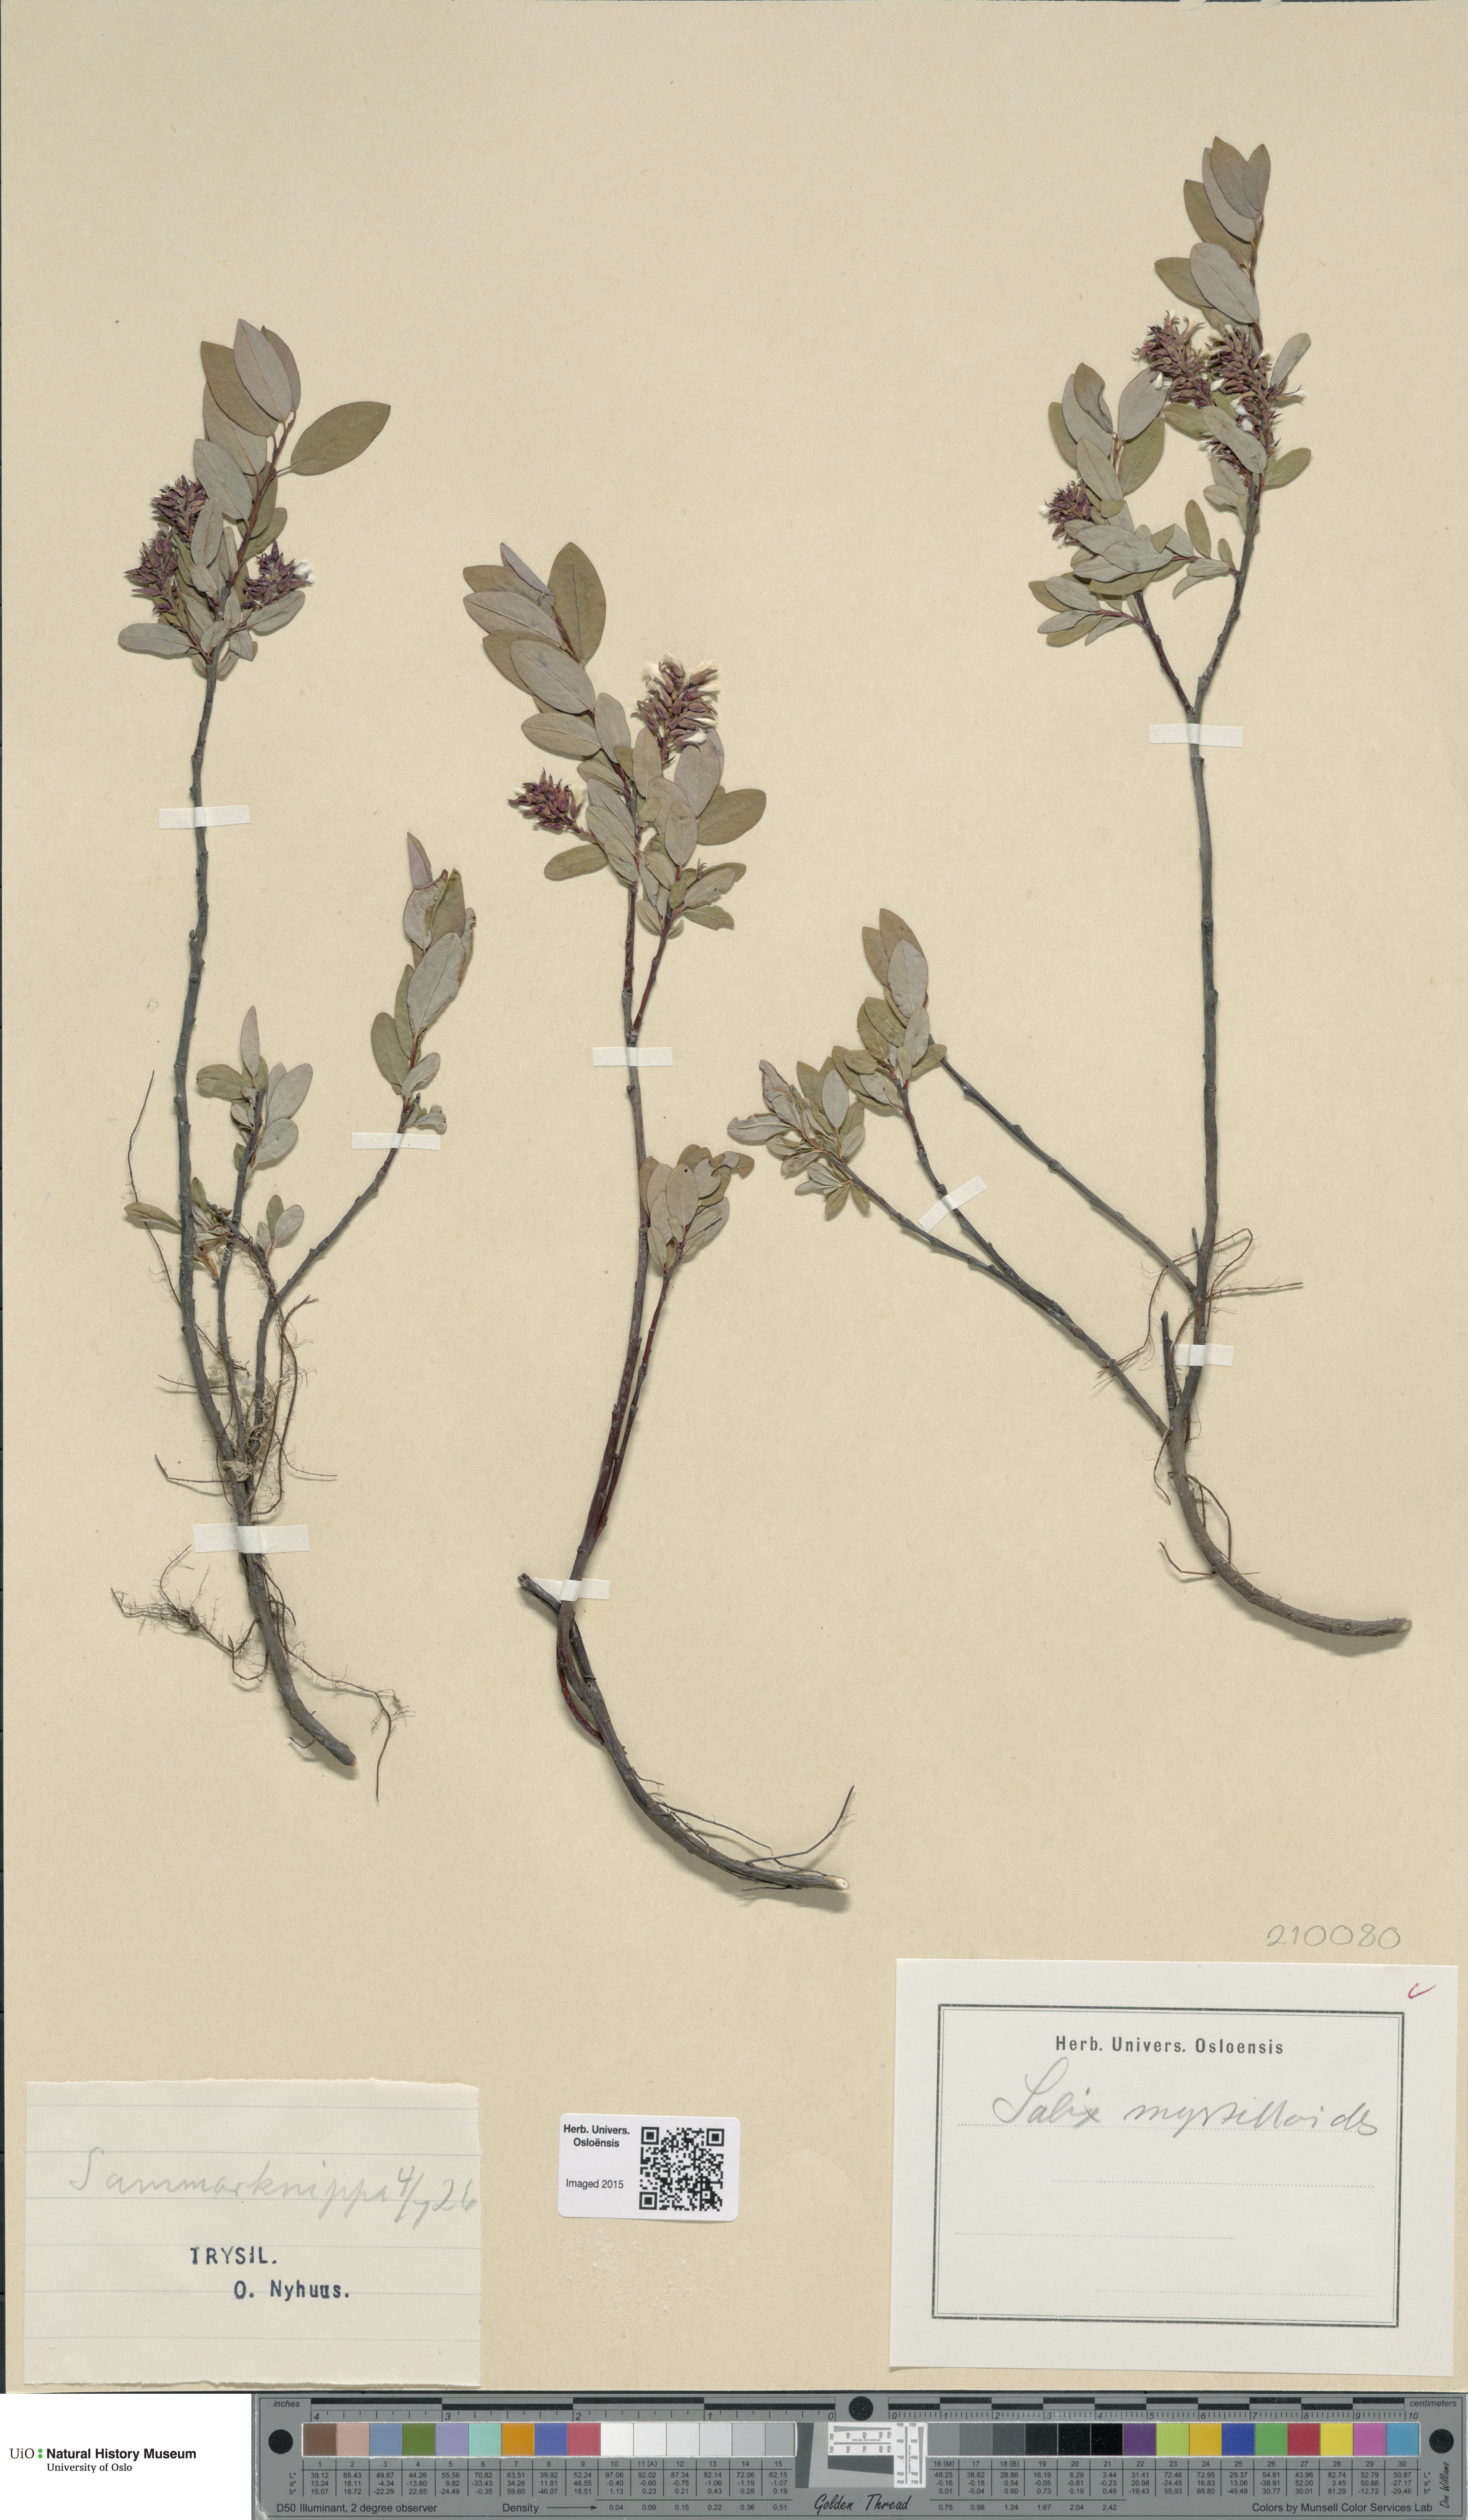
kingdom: Plantae
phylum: Tracheophyta
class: Magnoliopsida
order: Malpighiales
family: Salicaceae
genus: Salix
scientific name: Salix myrtilloides
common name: Myrtle-leaved willow
